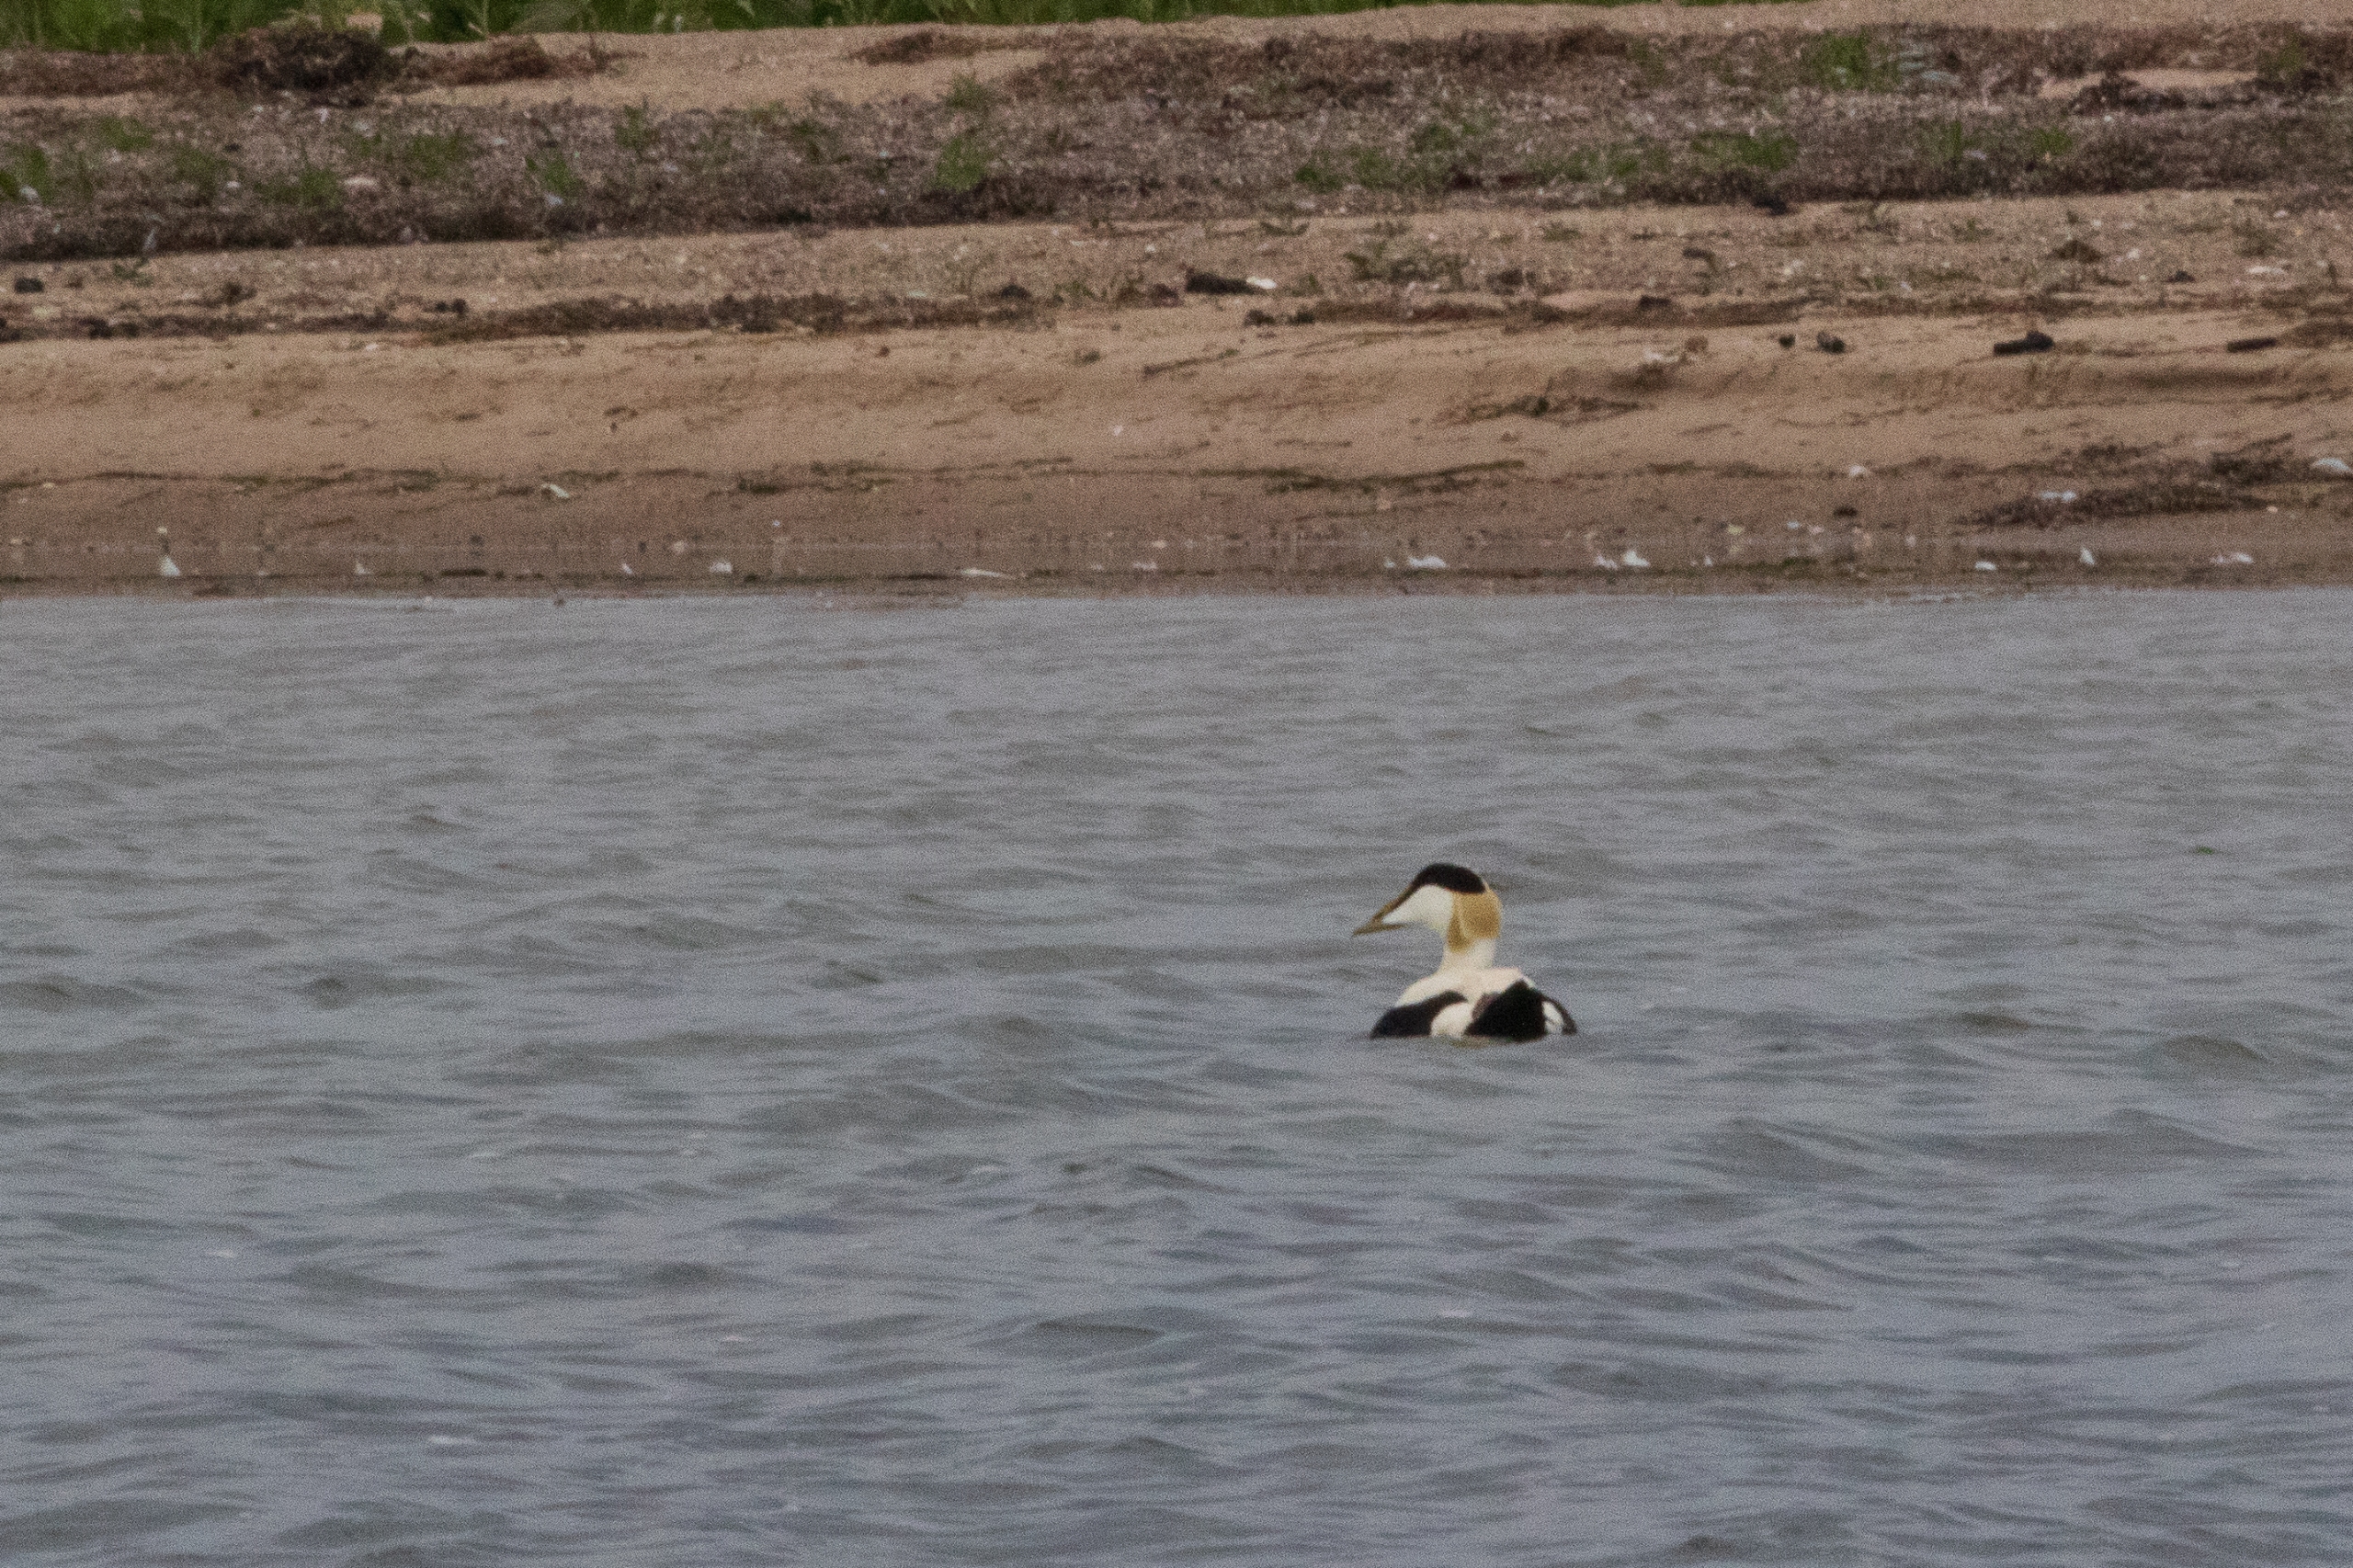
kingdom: Animalia
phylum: Chordata
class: Aves
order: Anseriformes
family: Anatidae
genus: Somateria
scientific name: Somateria mollissima
